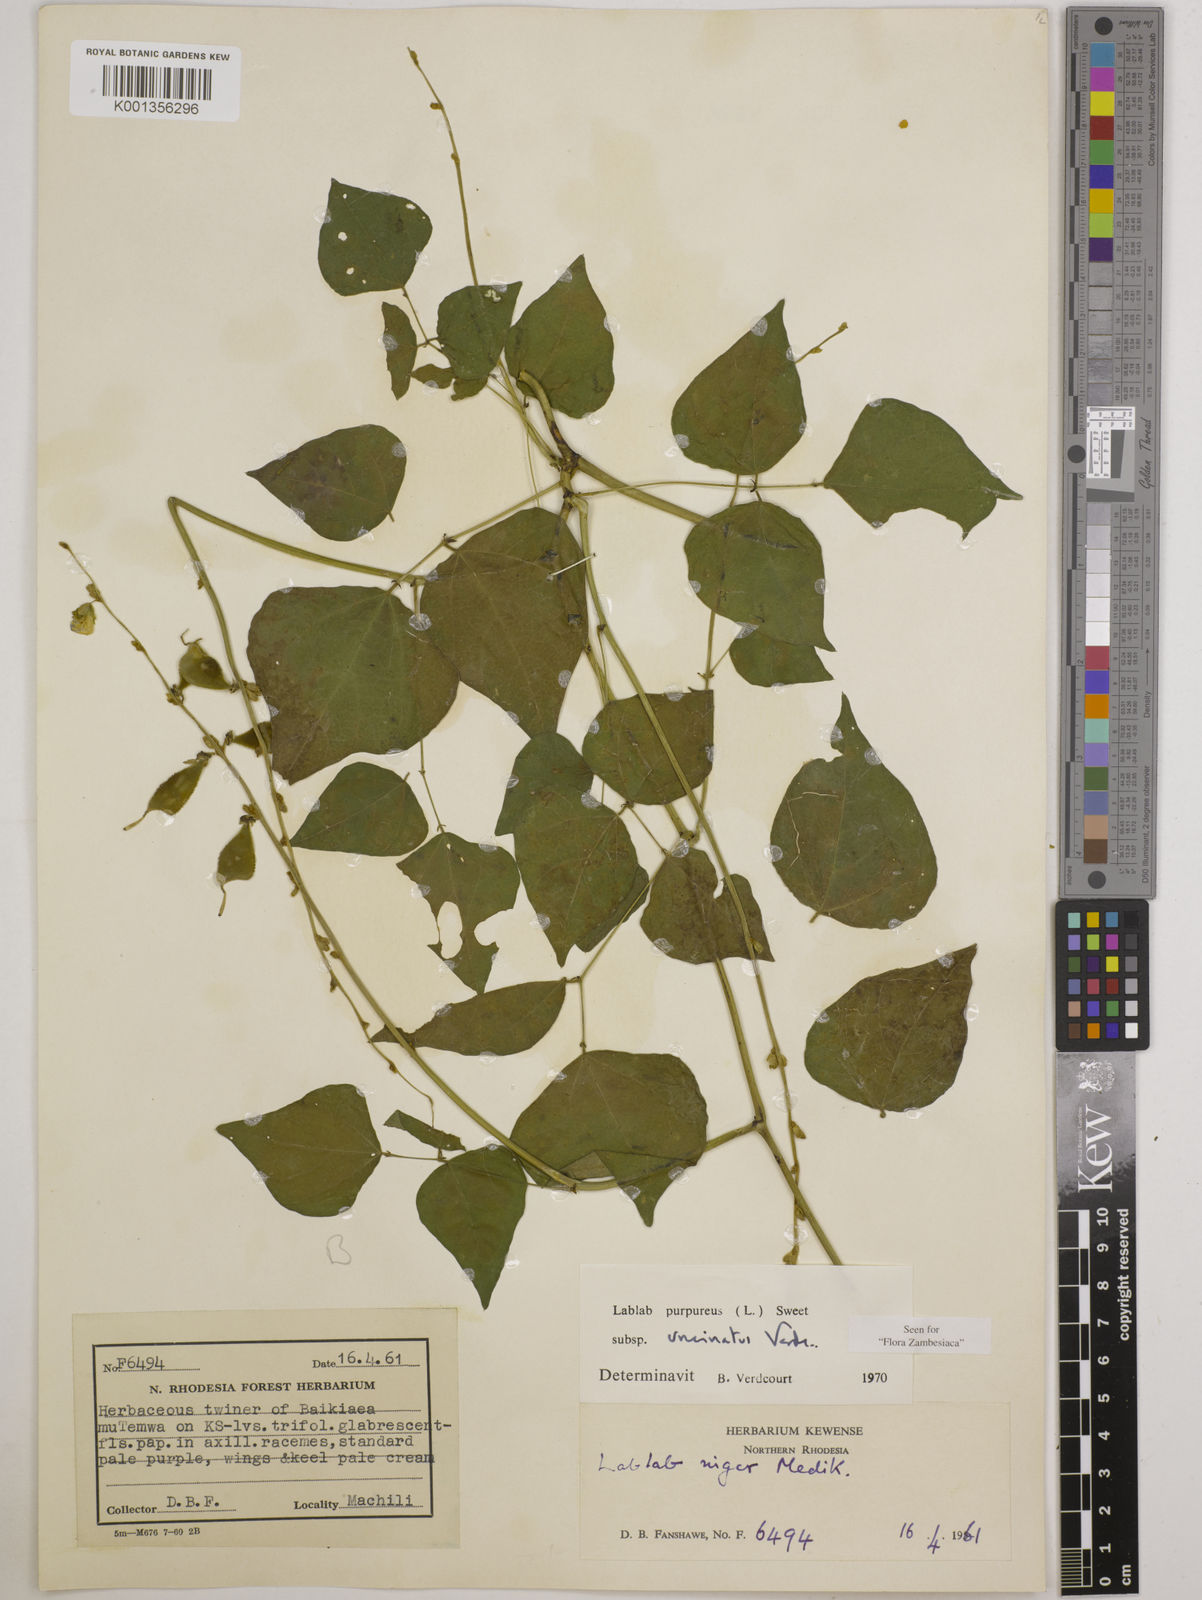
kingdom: Plantae
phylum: Tracheophyta
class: Magnoliopsida
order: Fabales
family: Fabaceae
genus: Lablab
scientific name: Lablab
